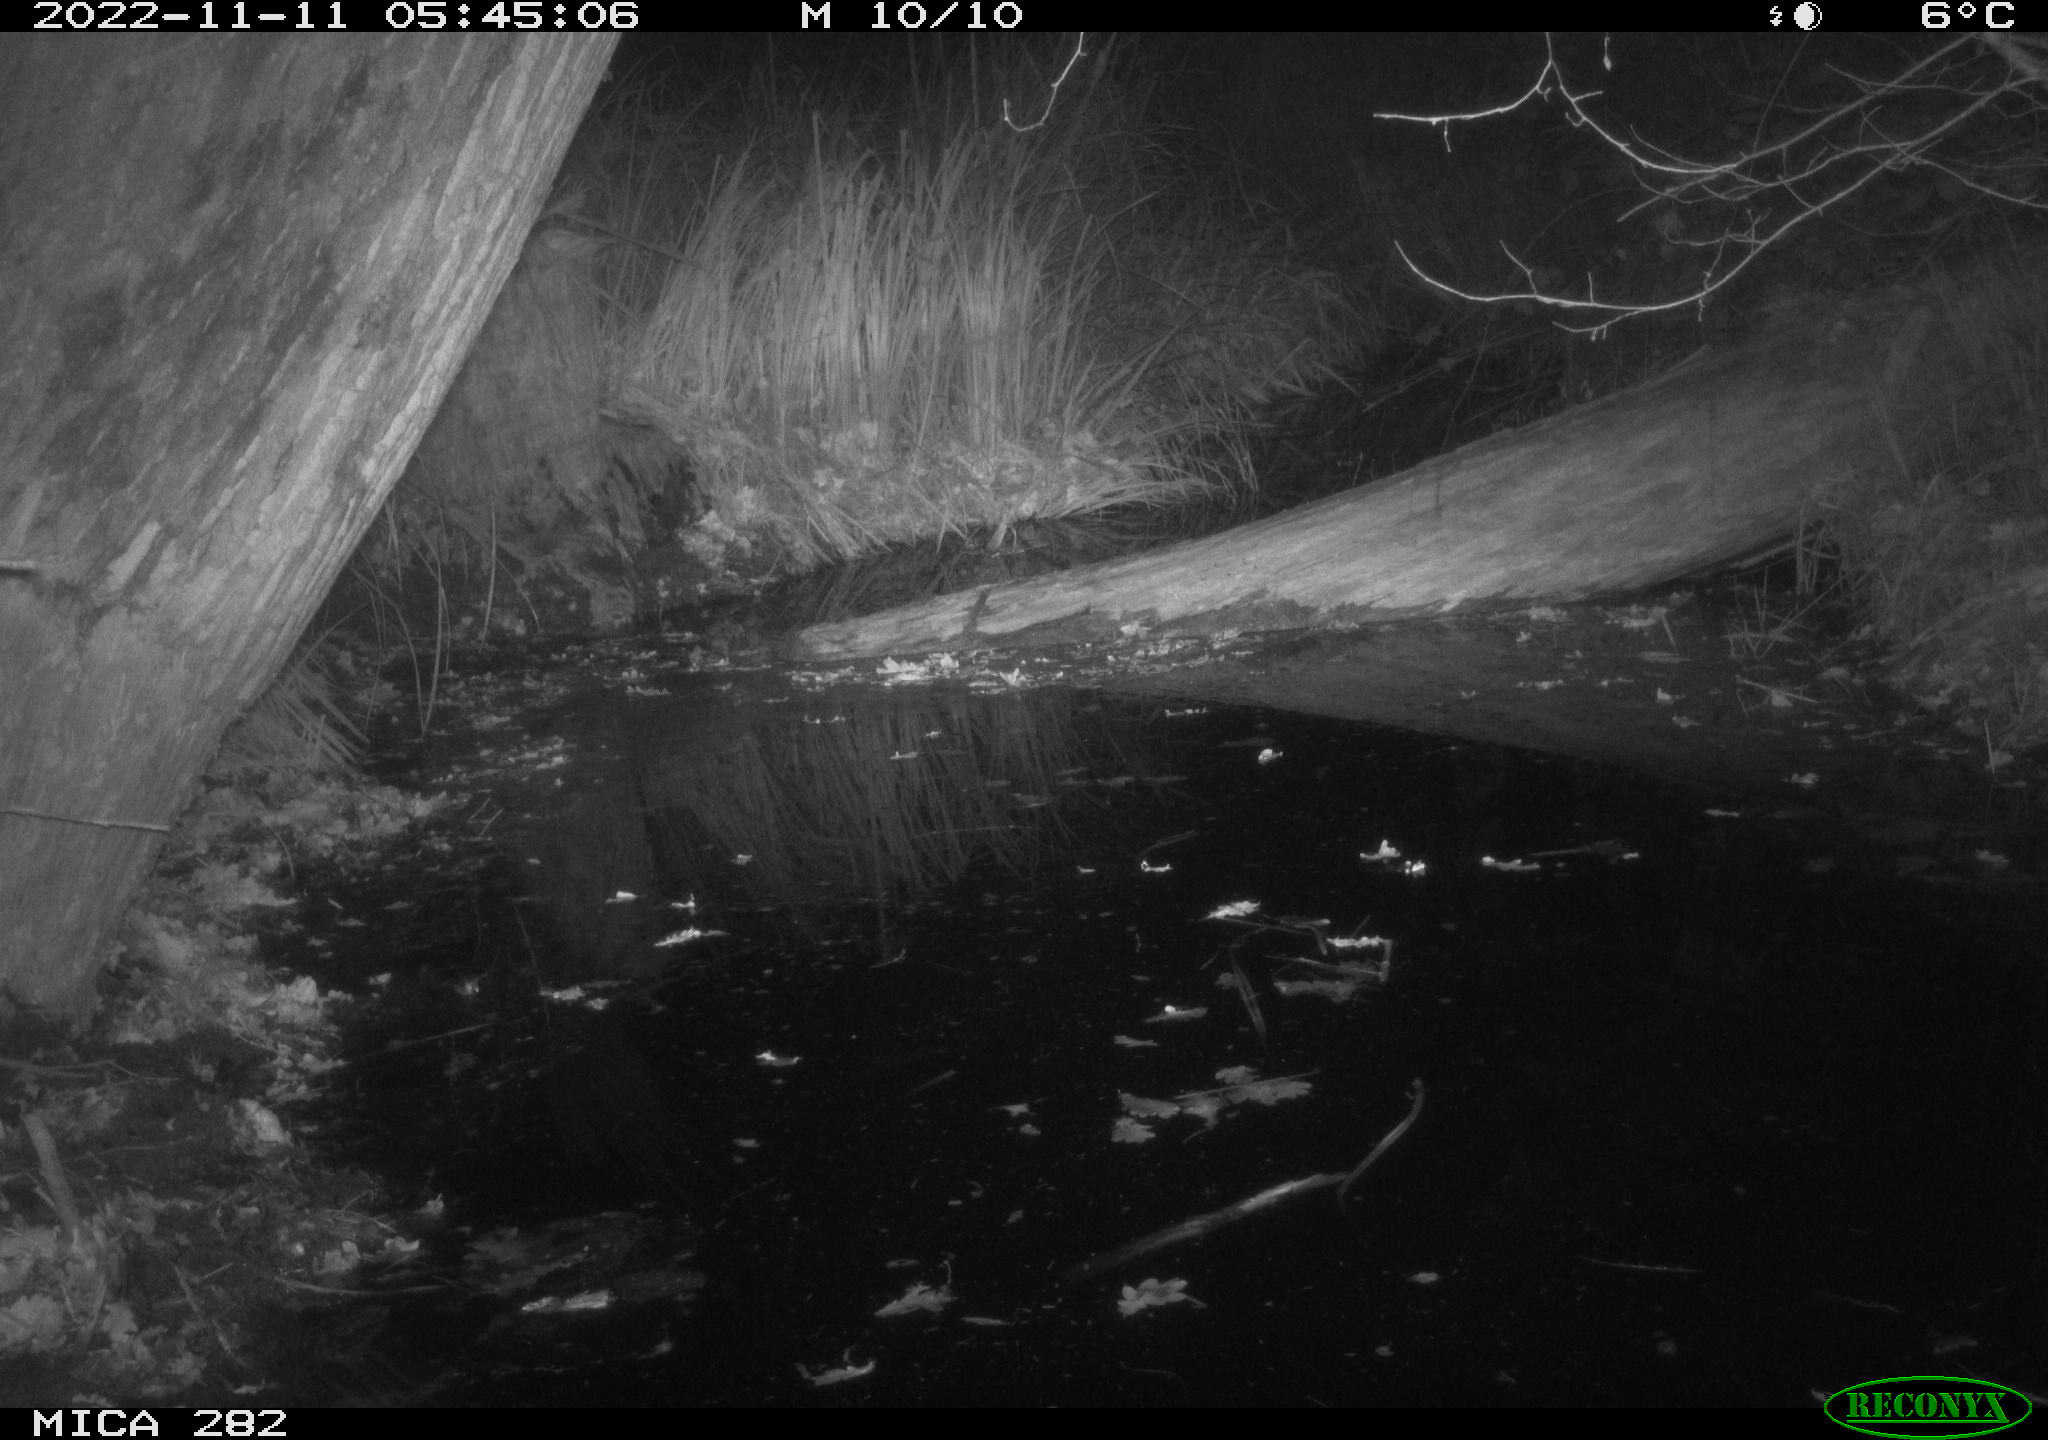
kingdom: Animalia
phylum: Chordata
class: Mammalia
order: Carnivora
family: Canidae
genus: Vulpes
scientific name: Vulpes vulpes
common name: Red fox
